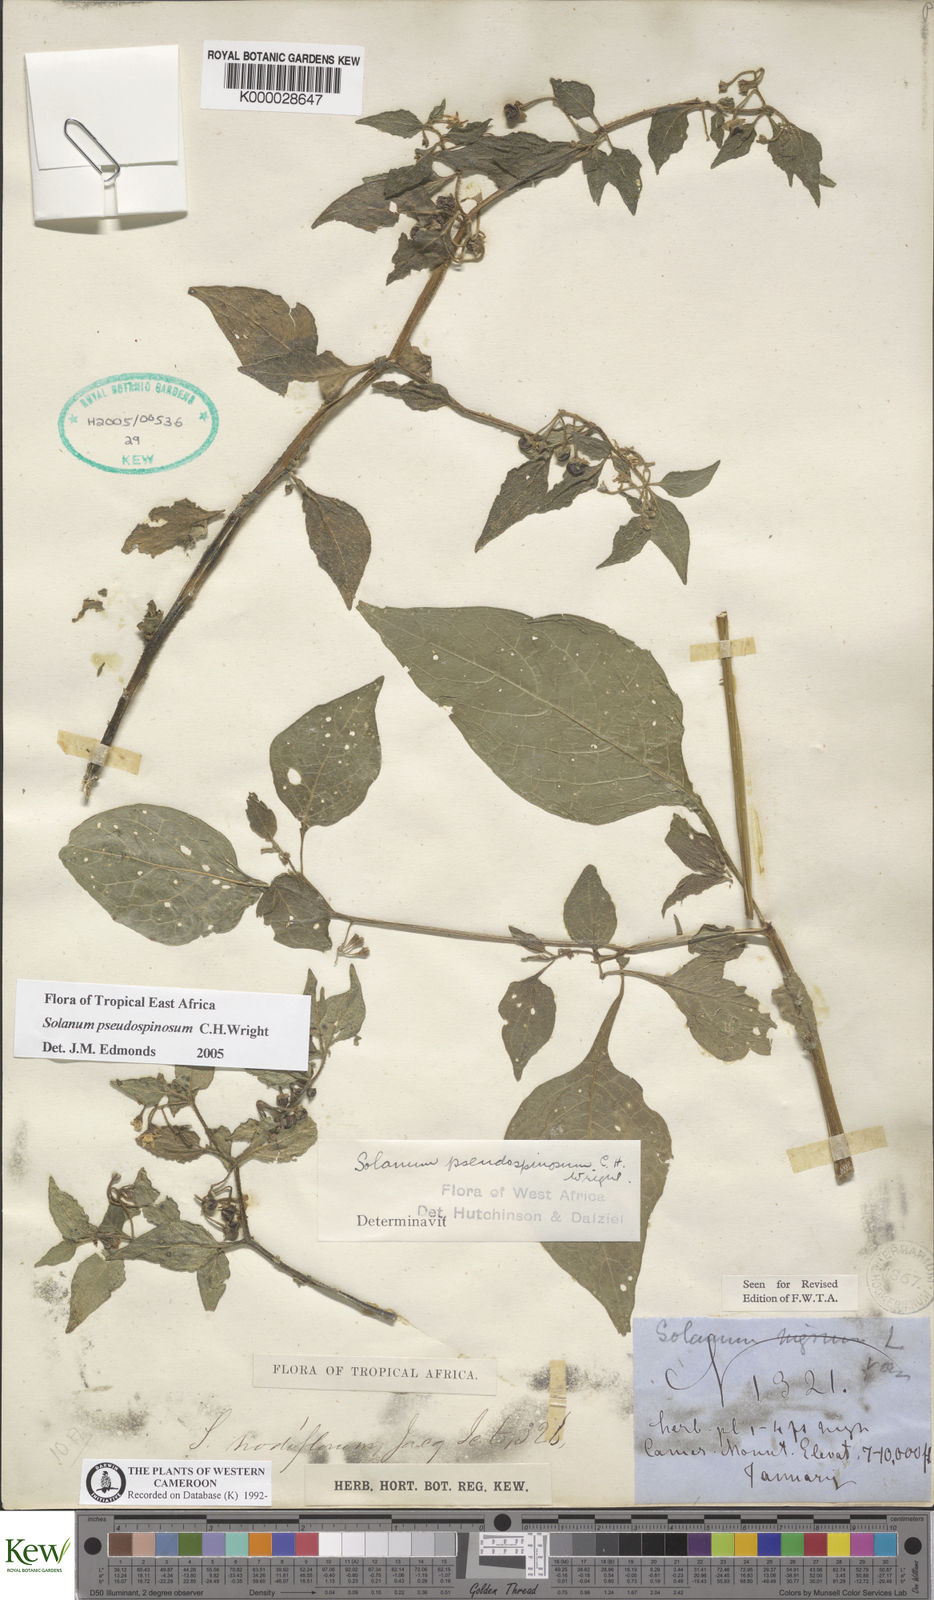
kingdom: Plantae
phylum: Tracheophyta
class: Magnoliopsida
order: Solanales
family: Solanaceae
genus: Solanum
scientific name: Solanum pseudospinosum
